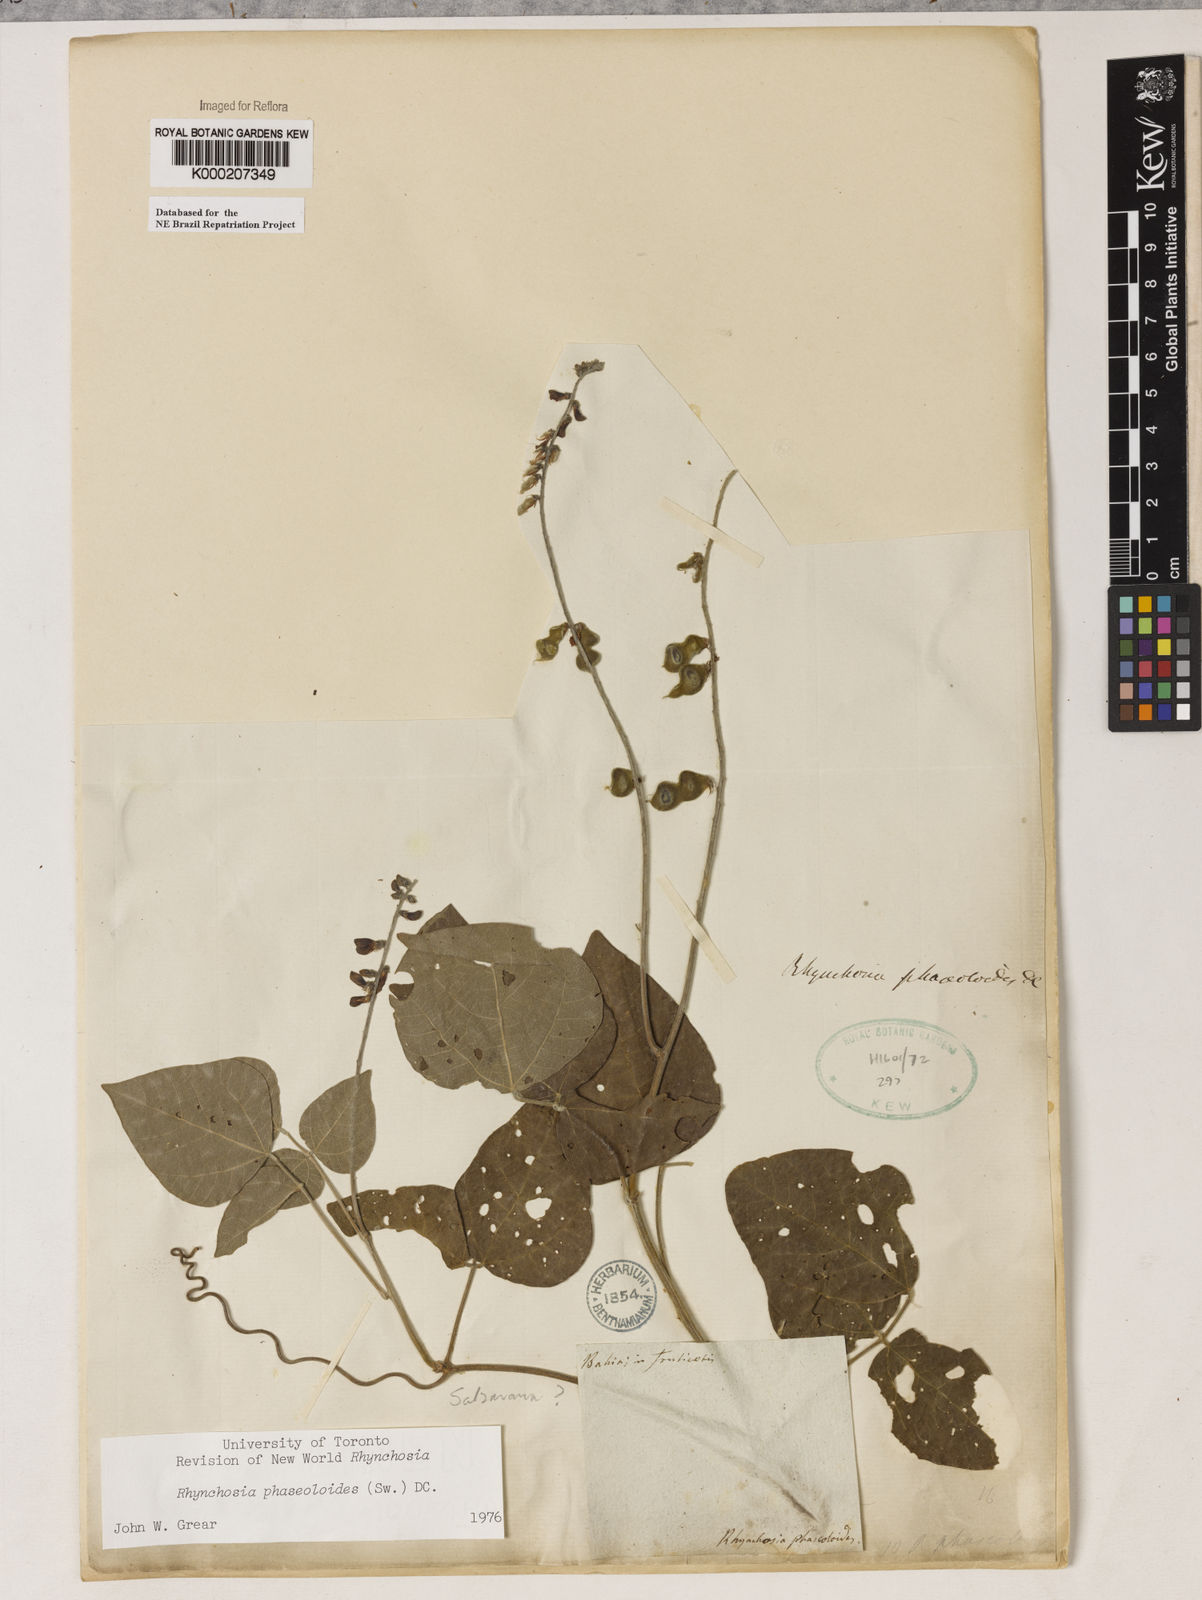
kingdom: Plantae
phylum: Tracheophyta
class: Magnoliopsida
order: Fabales
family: Fabaceae
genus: Rhynchosia
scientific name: Rhynchosia phaseoloides
